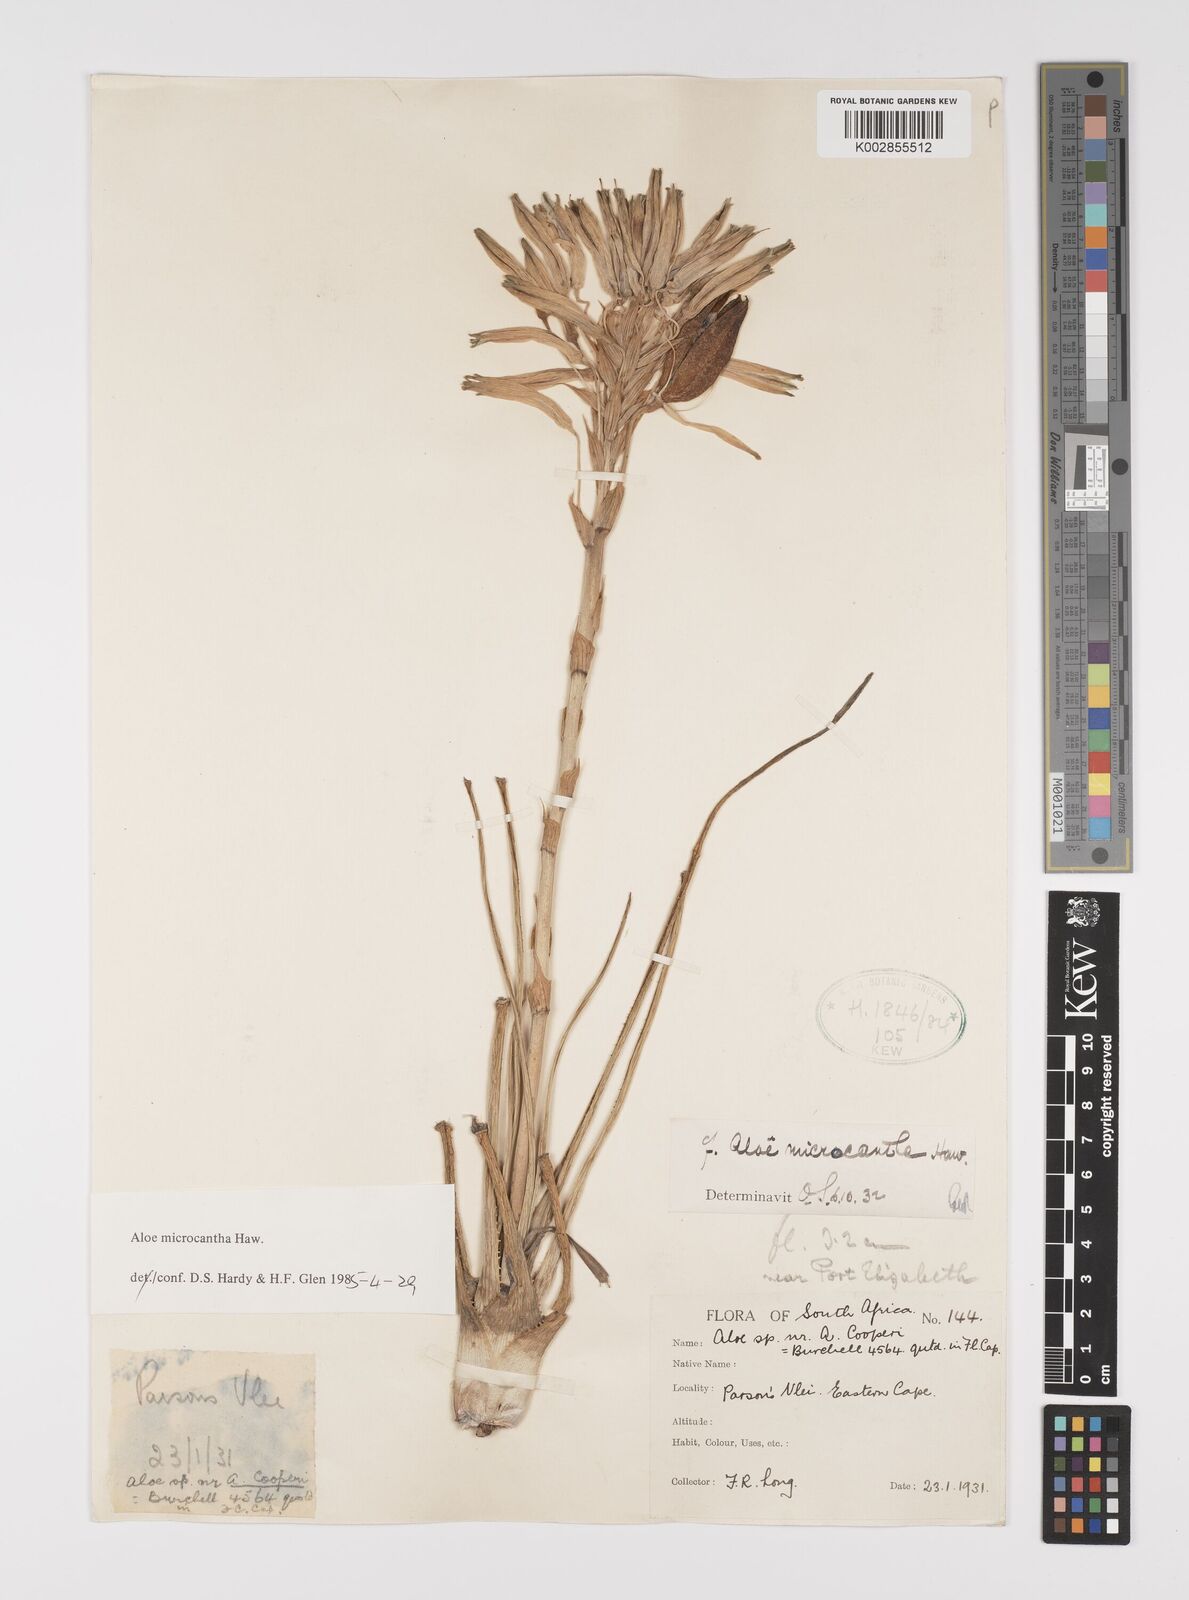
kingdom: Plantae
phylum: Tracheophyta
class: Liliopsida
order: Asparagales
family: Asphodelaceae
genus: Aloe
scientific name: Aloe micracantha
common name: Fynbos grass aloe
